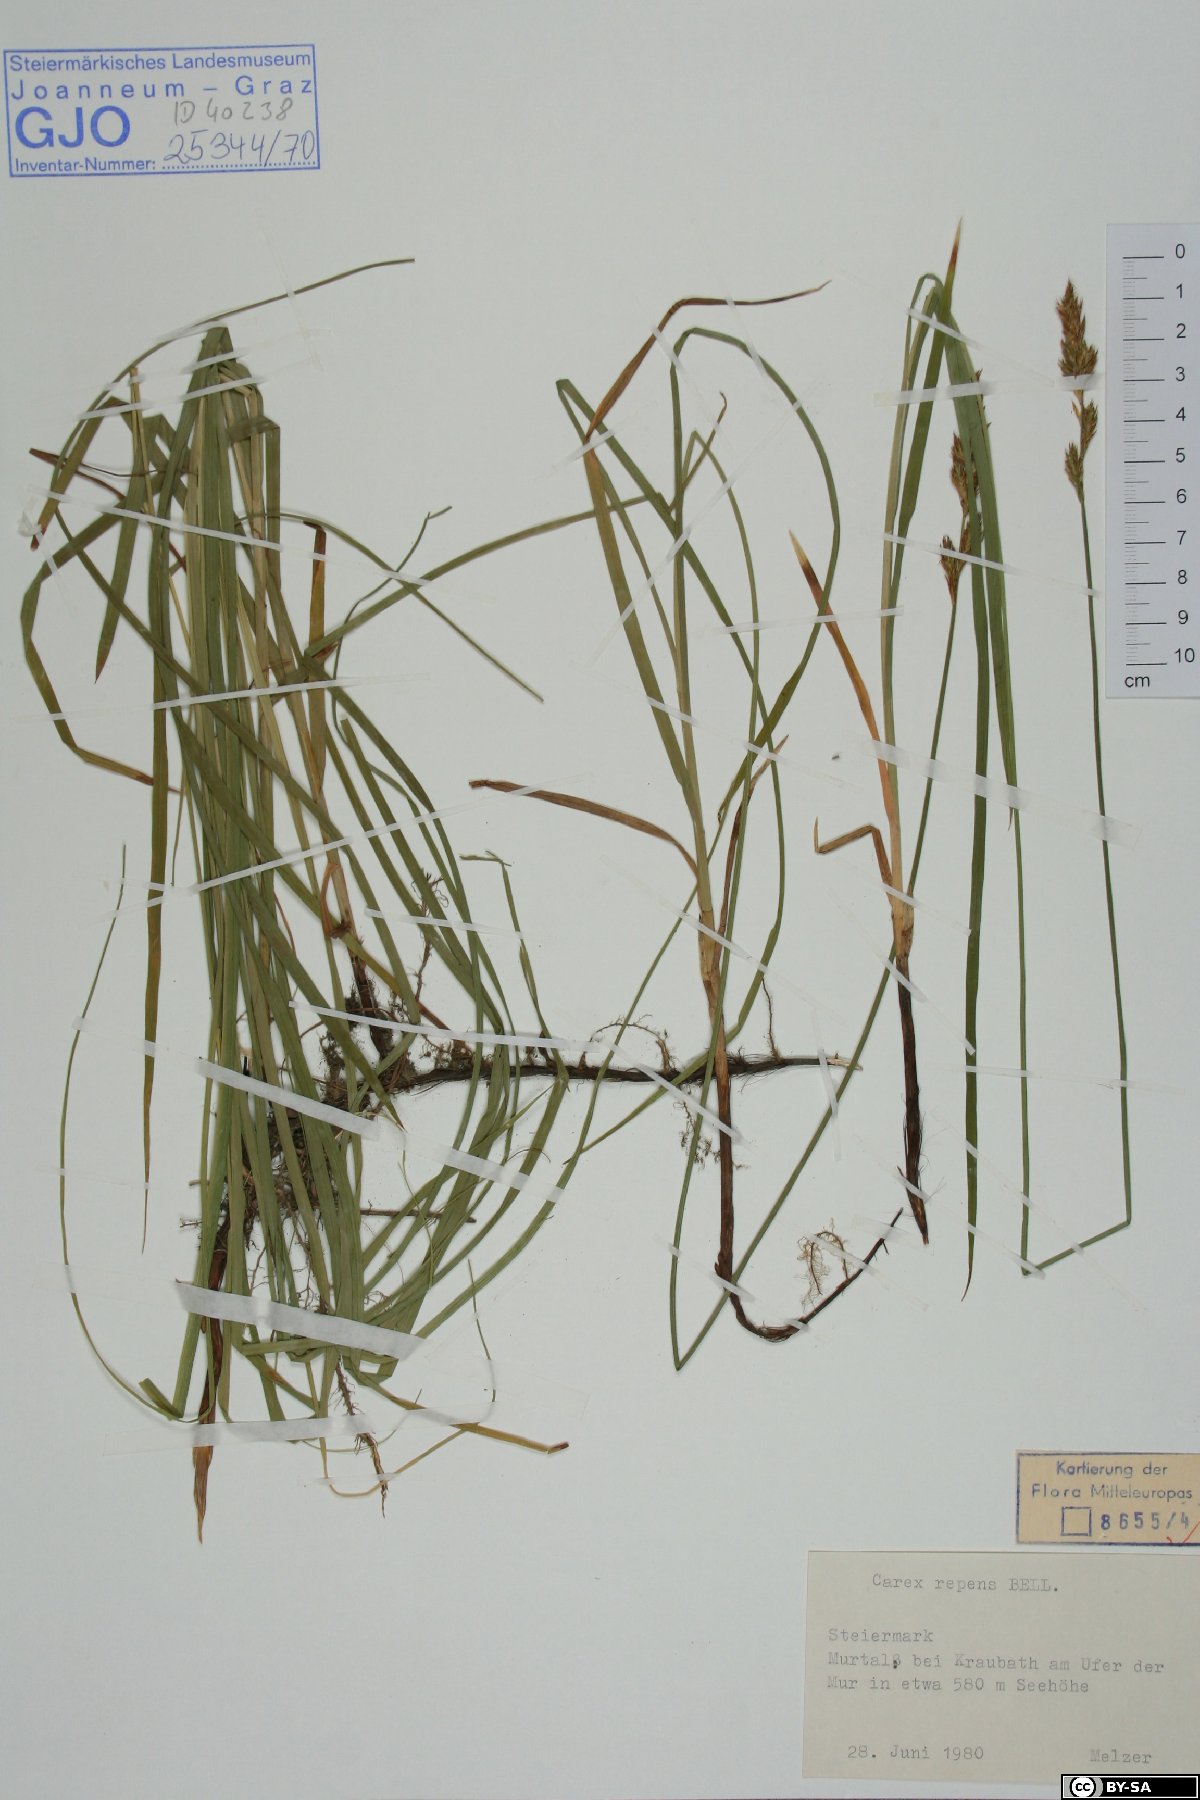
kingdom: Plantae
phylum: Tracheophyta
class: Liliopsida
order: Poales
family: Cyperaceae
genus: Carex
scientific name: Carex repens
